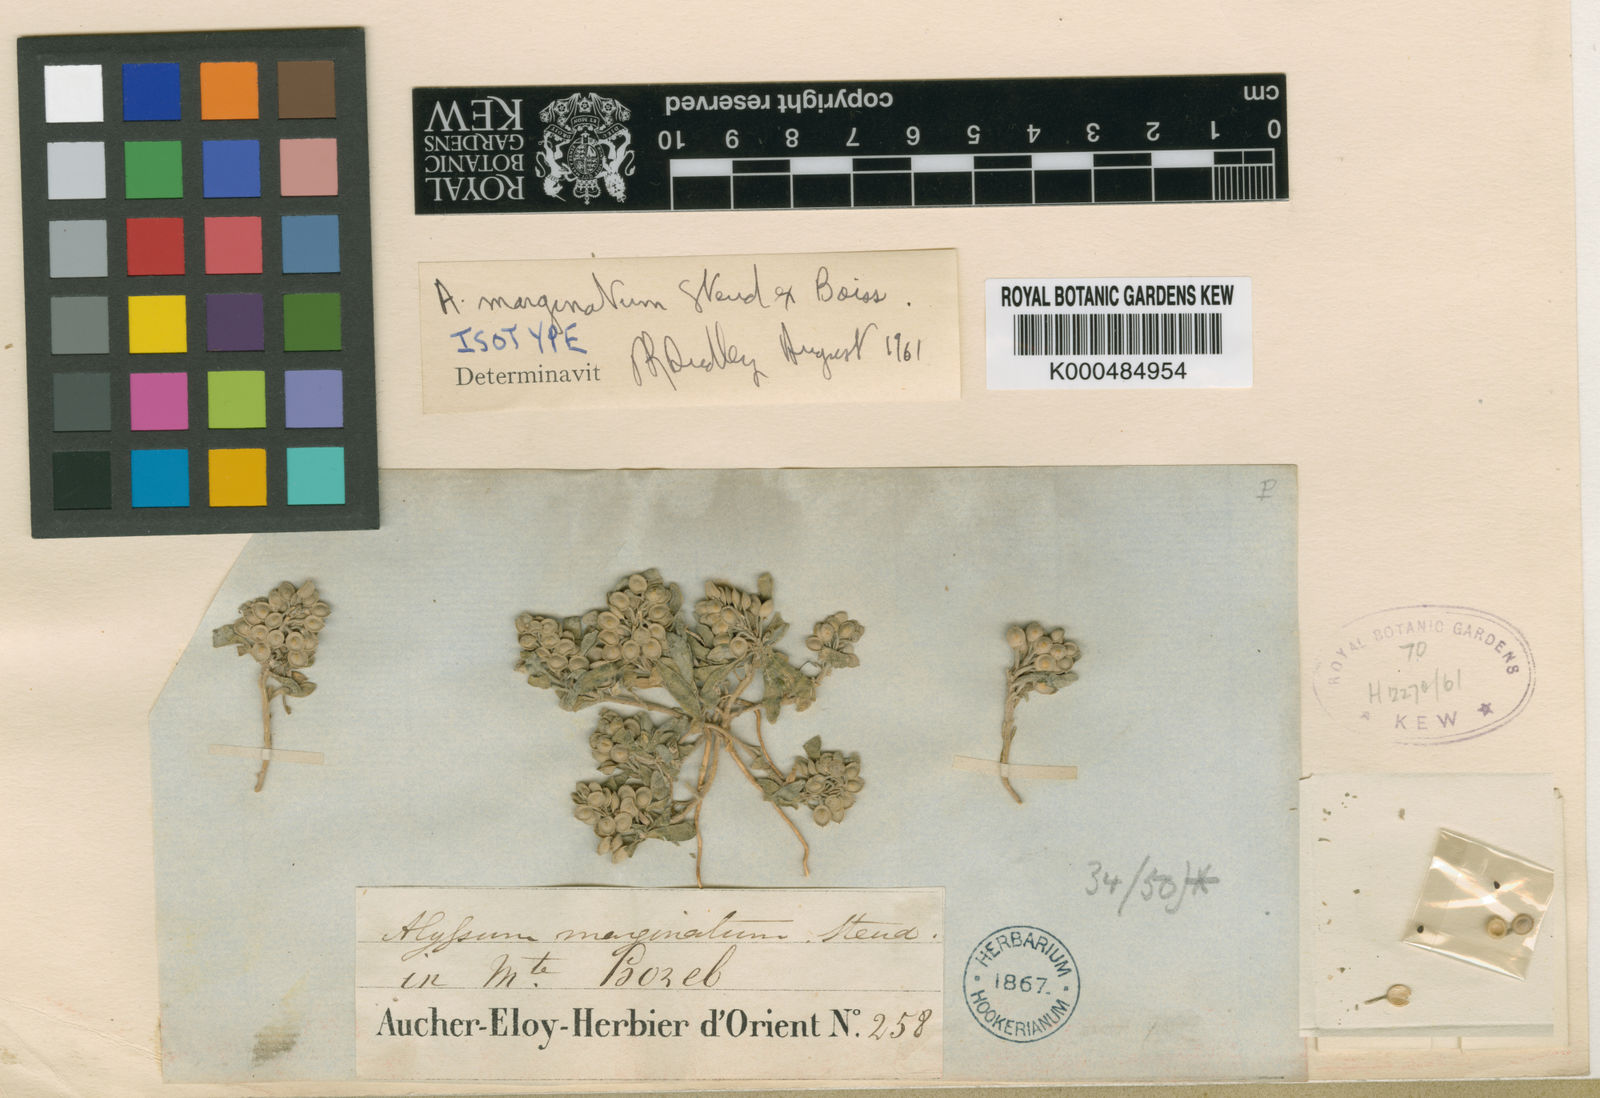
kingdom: Plantae
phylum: Tracheophyta
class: Magnoliopsida
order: Brassicales
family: Brassicaceae
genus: Alyssum
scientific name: Alyssum
